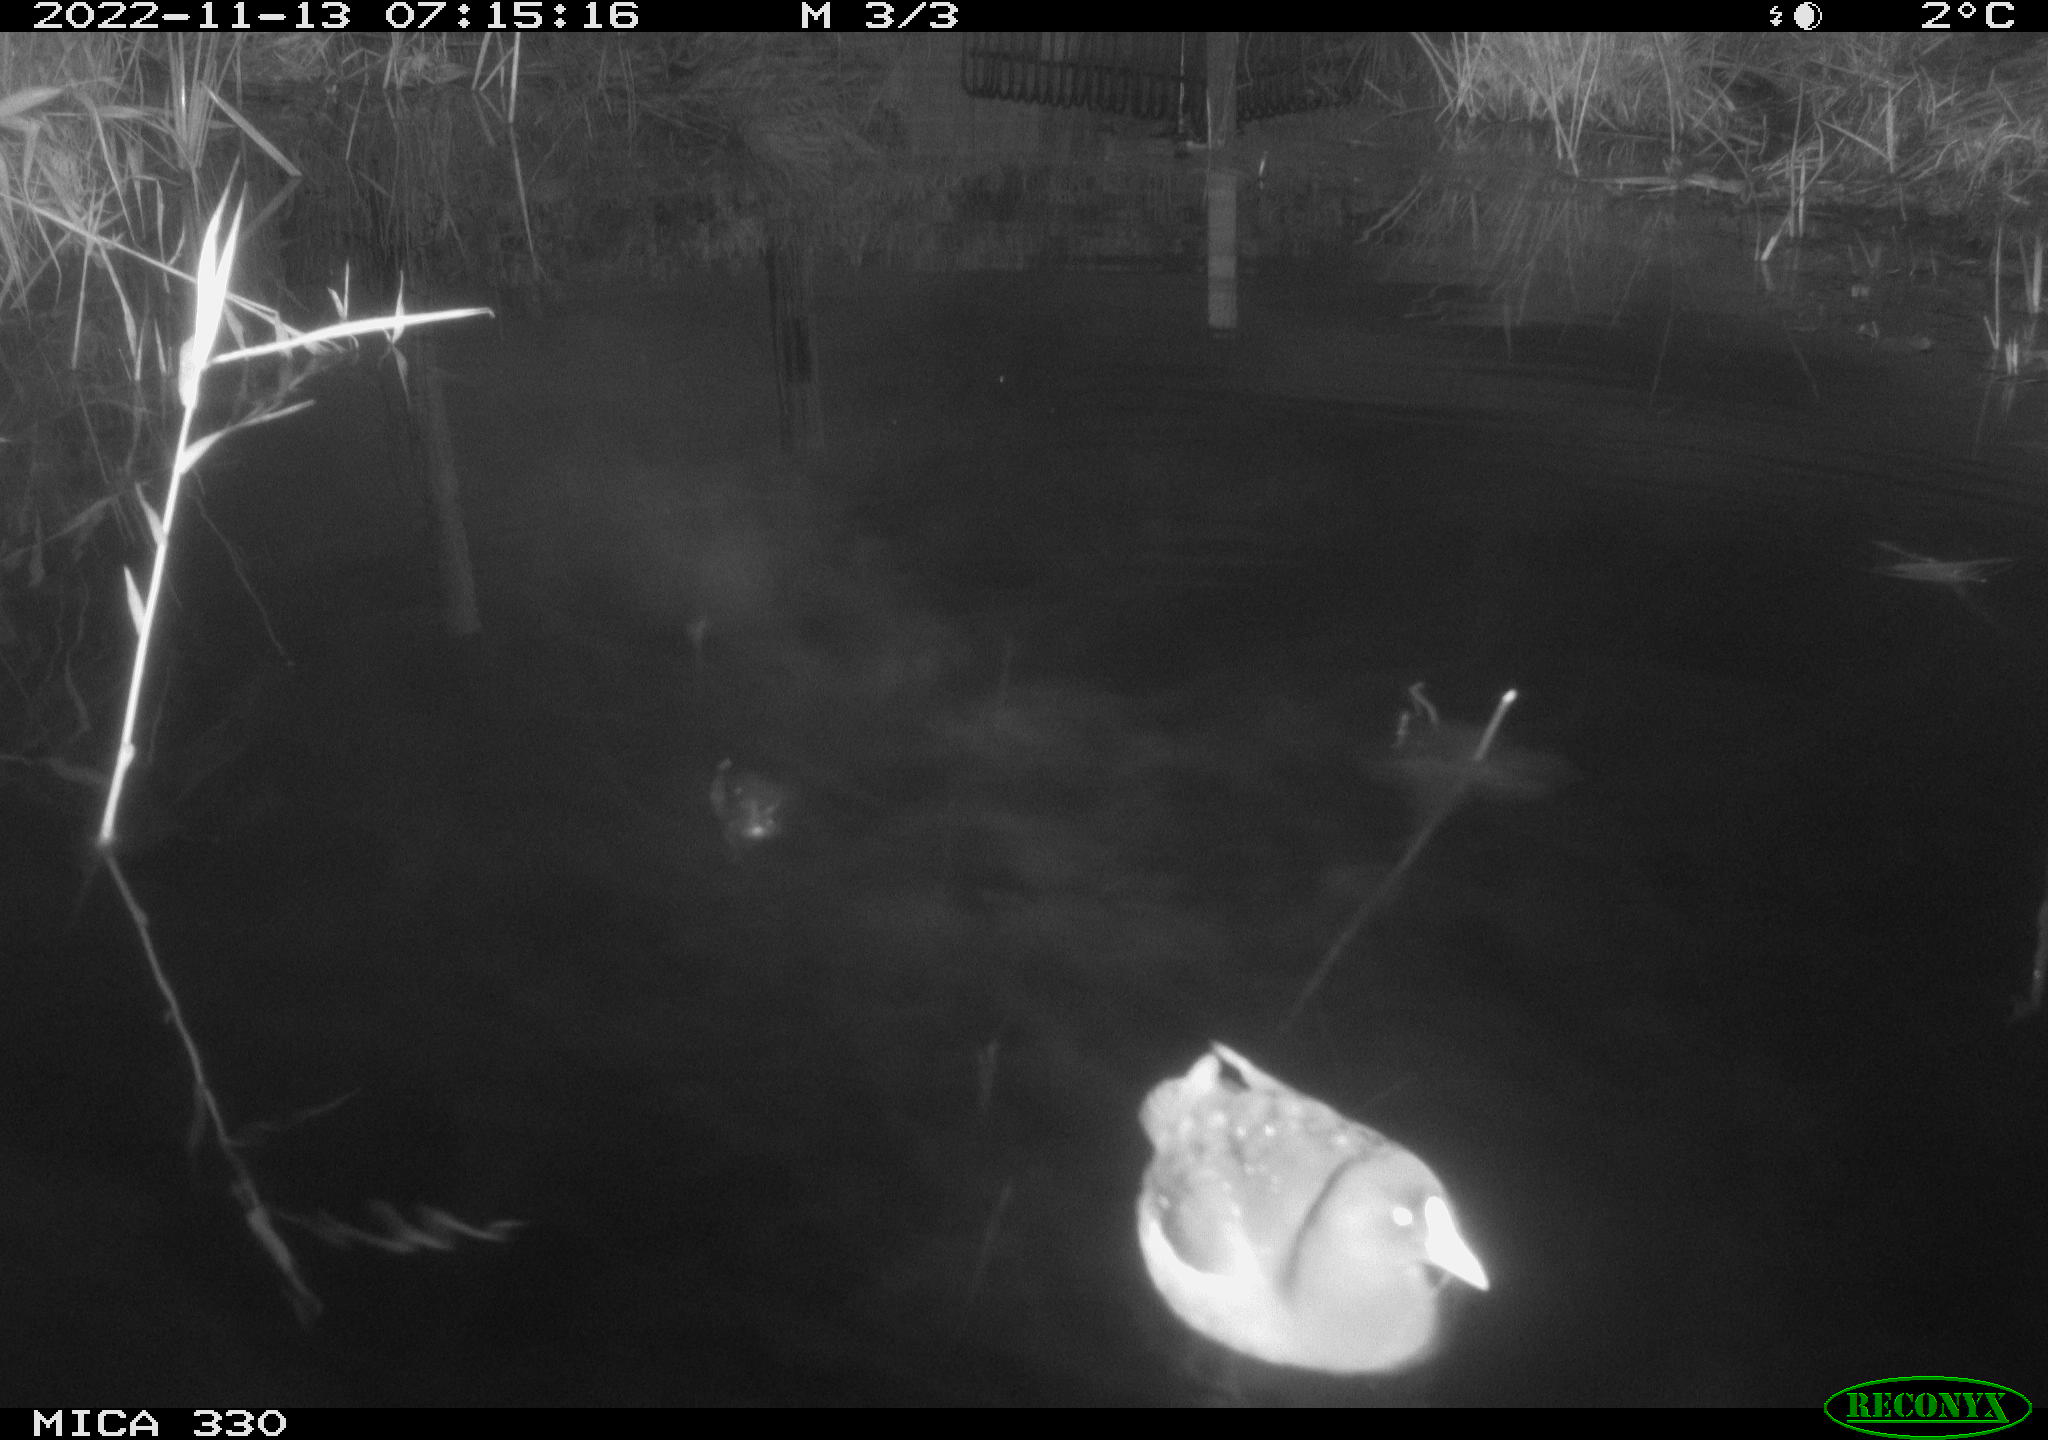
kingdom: Animalia
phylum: Chordata
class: Aves
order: Gruiformes
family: Rallidae
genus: Gallinula
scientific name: Gallinula chloropus
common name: Common moorhen
